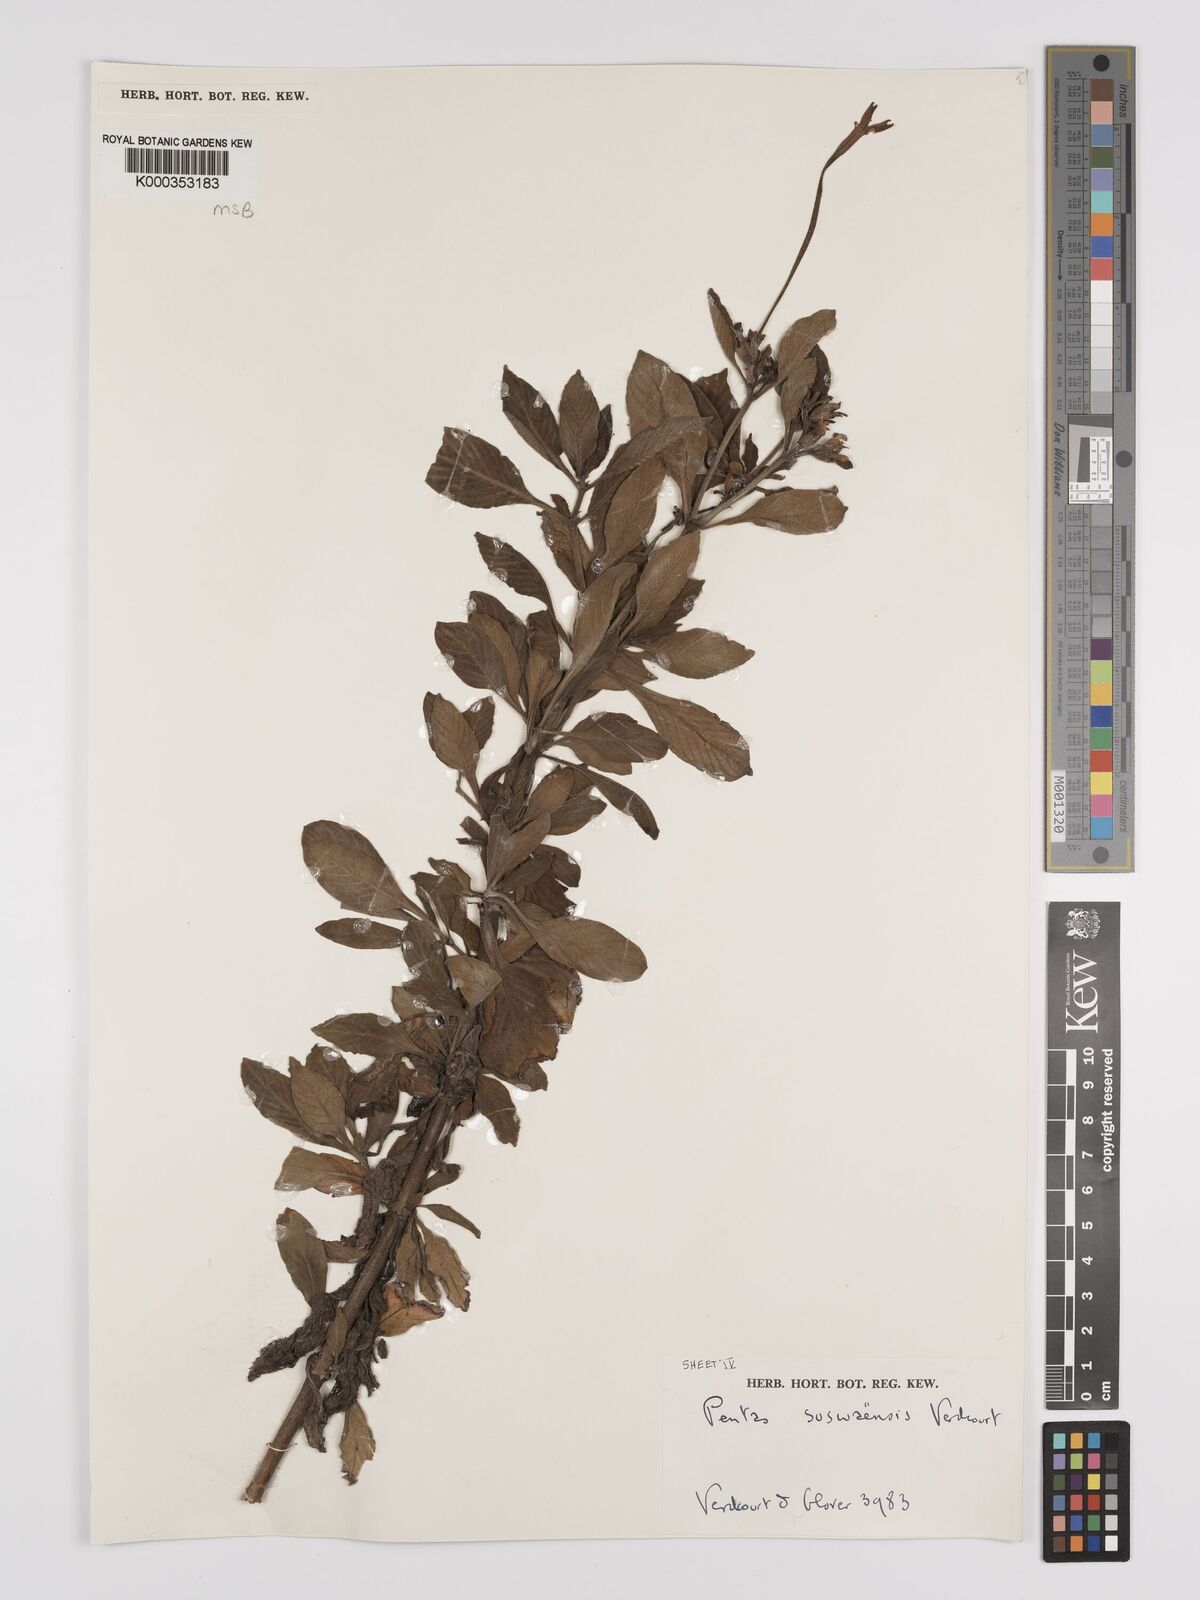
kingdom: Plantae
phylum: Tracheophyta
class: Magnoliopsida
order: Gentianales
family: Rubiaceae
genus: Pentas
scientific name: Pentas suswaensis
